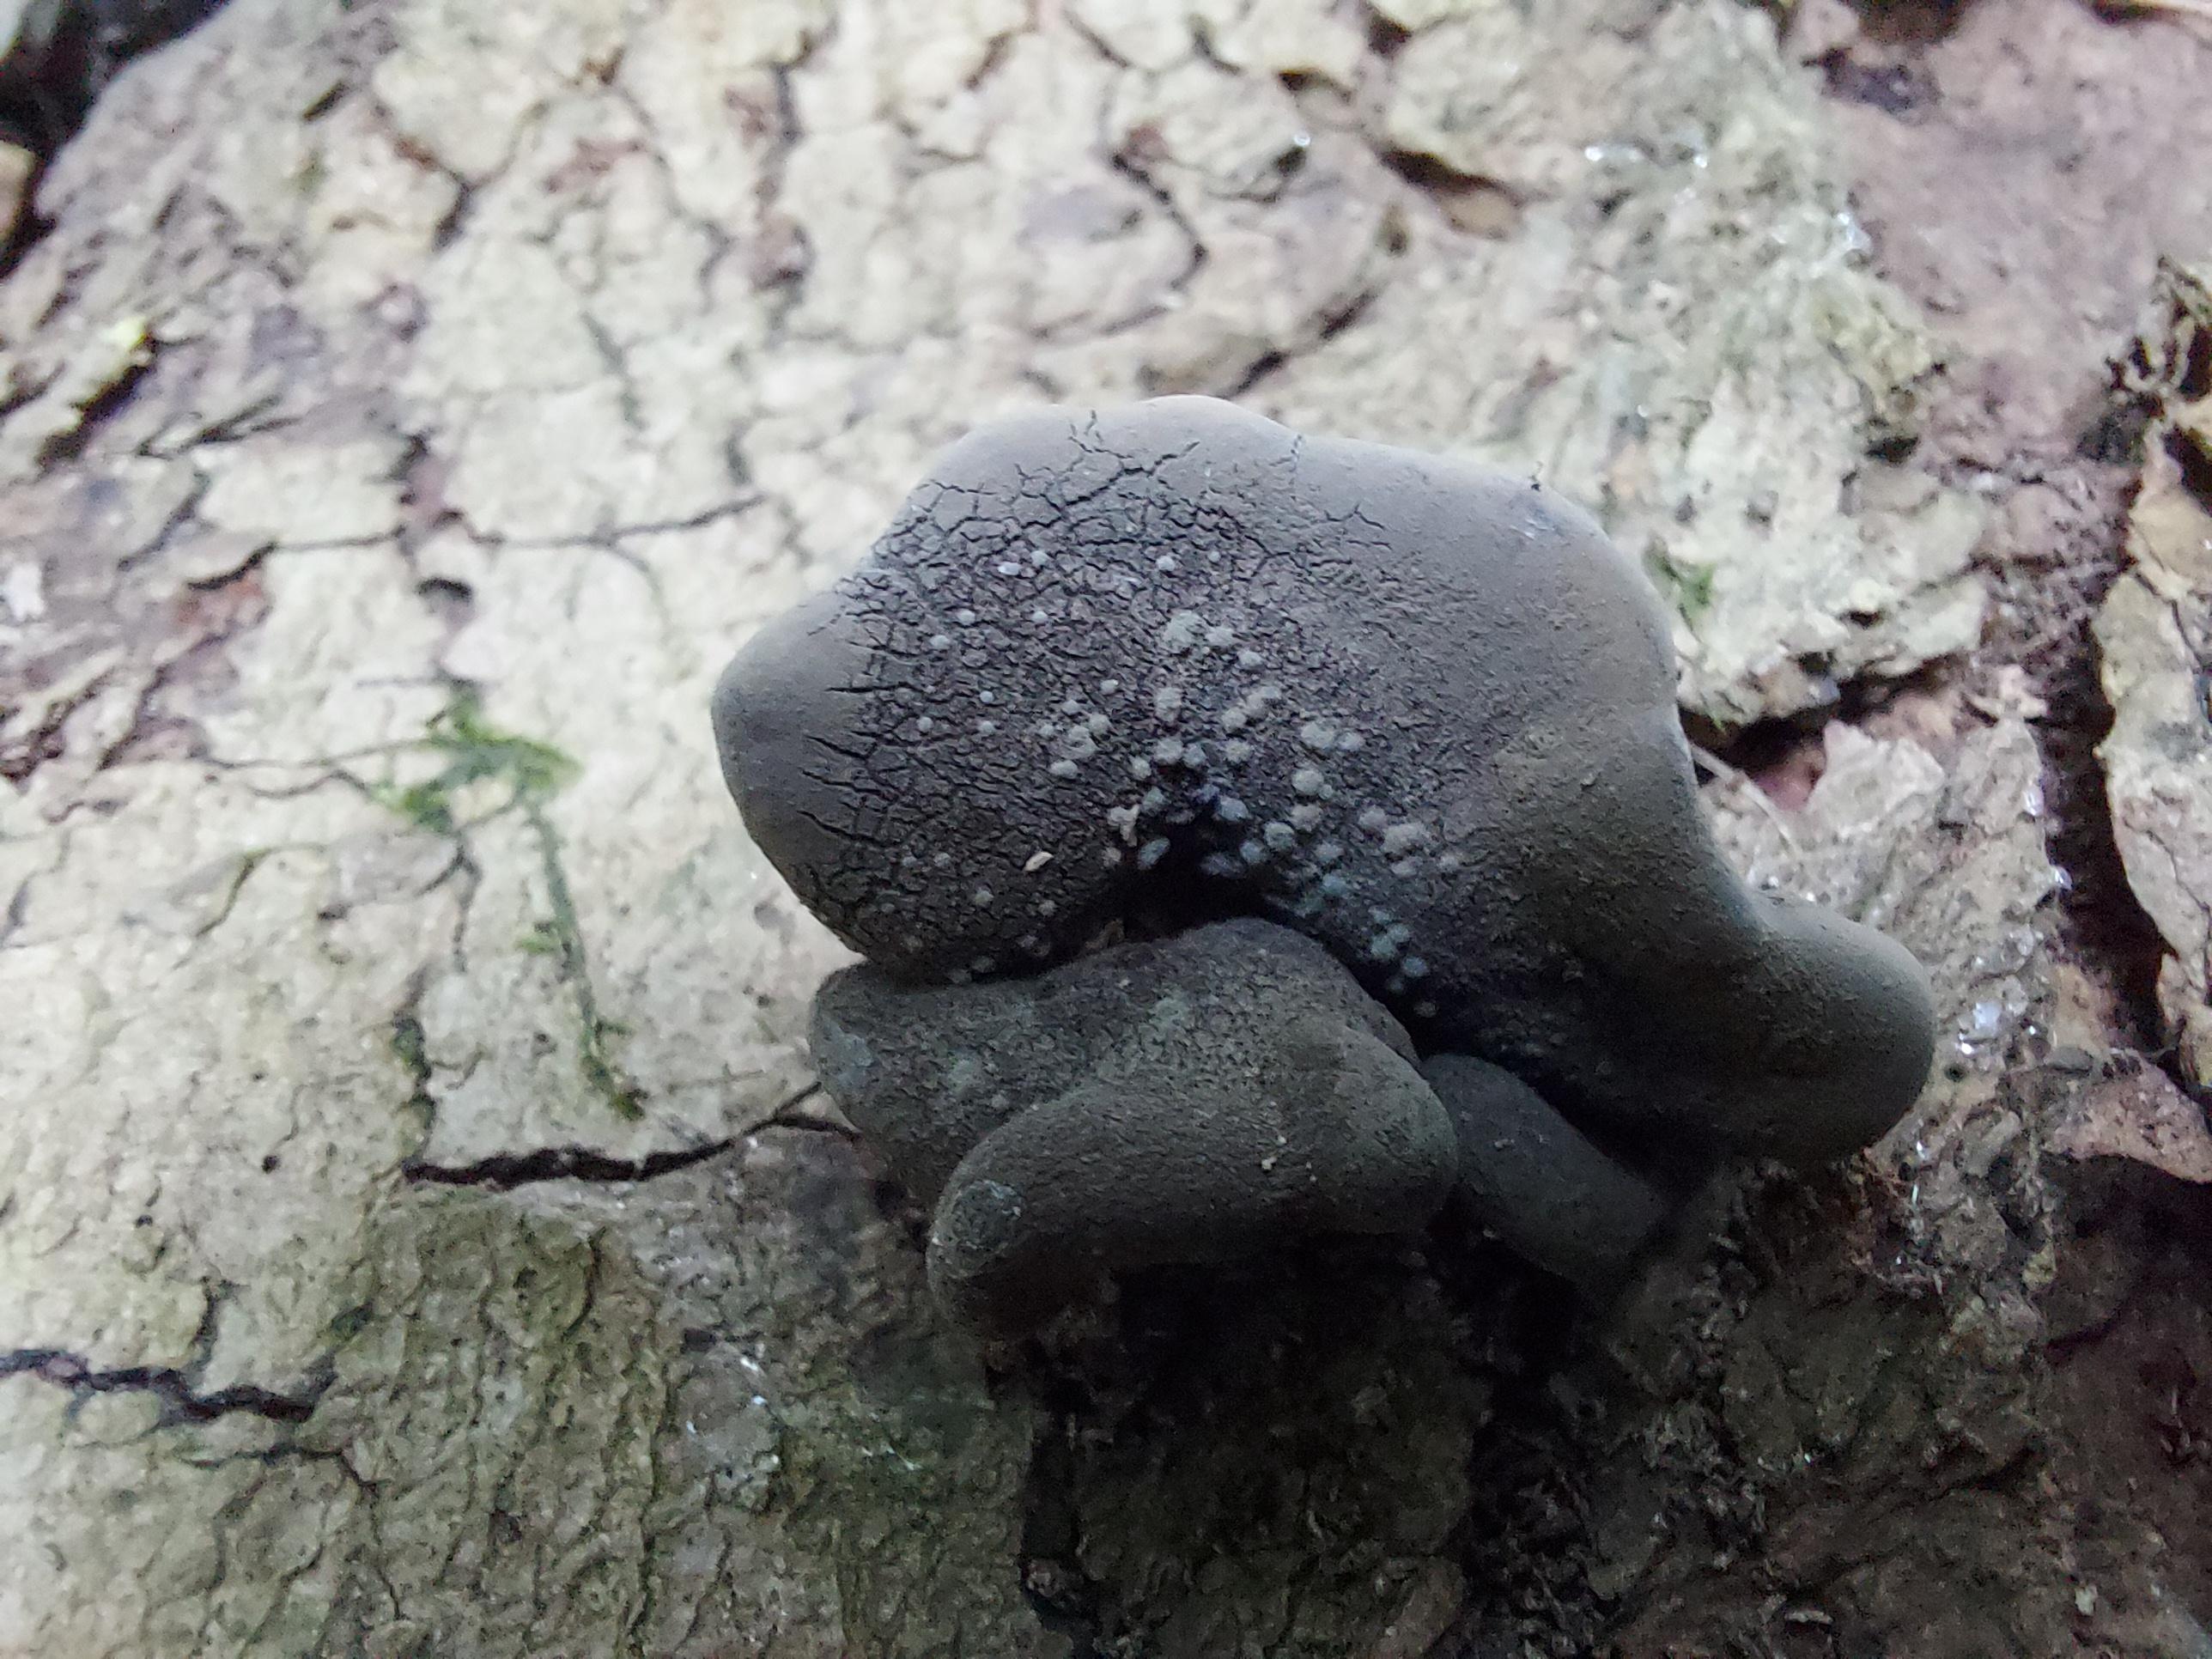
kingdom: Fungi
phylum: Ascomycota
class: Sordariomycetes
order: Xylariales
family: Xylariaceae
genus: Xylaria
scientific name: Xylaria polymorpha
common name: kølle-stødsvamp
